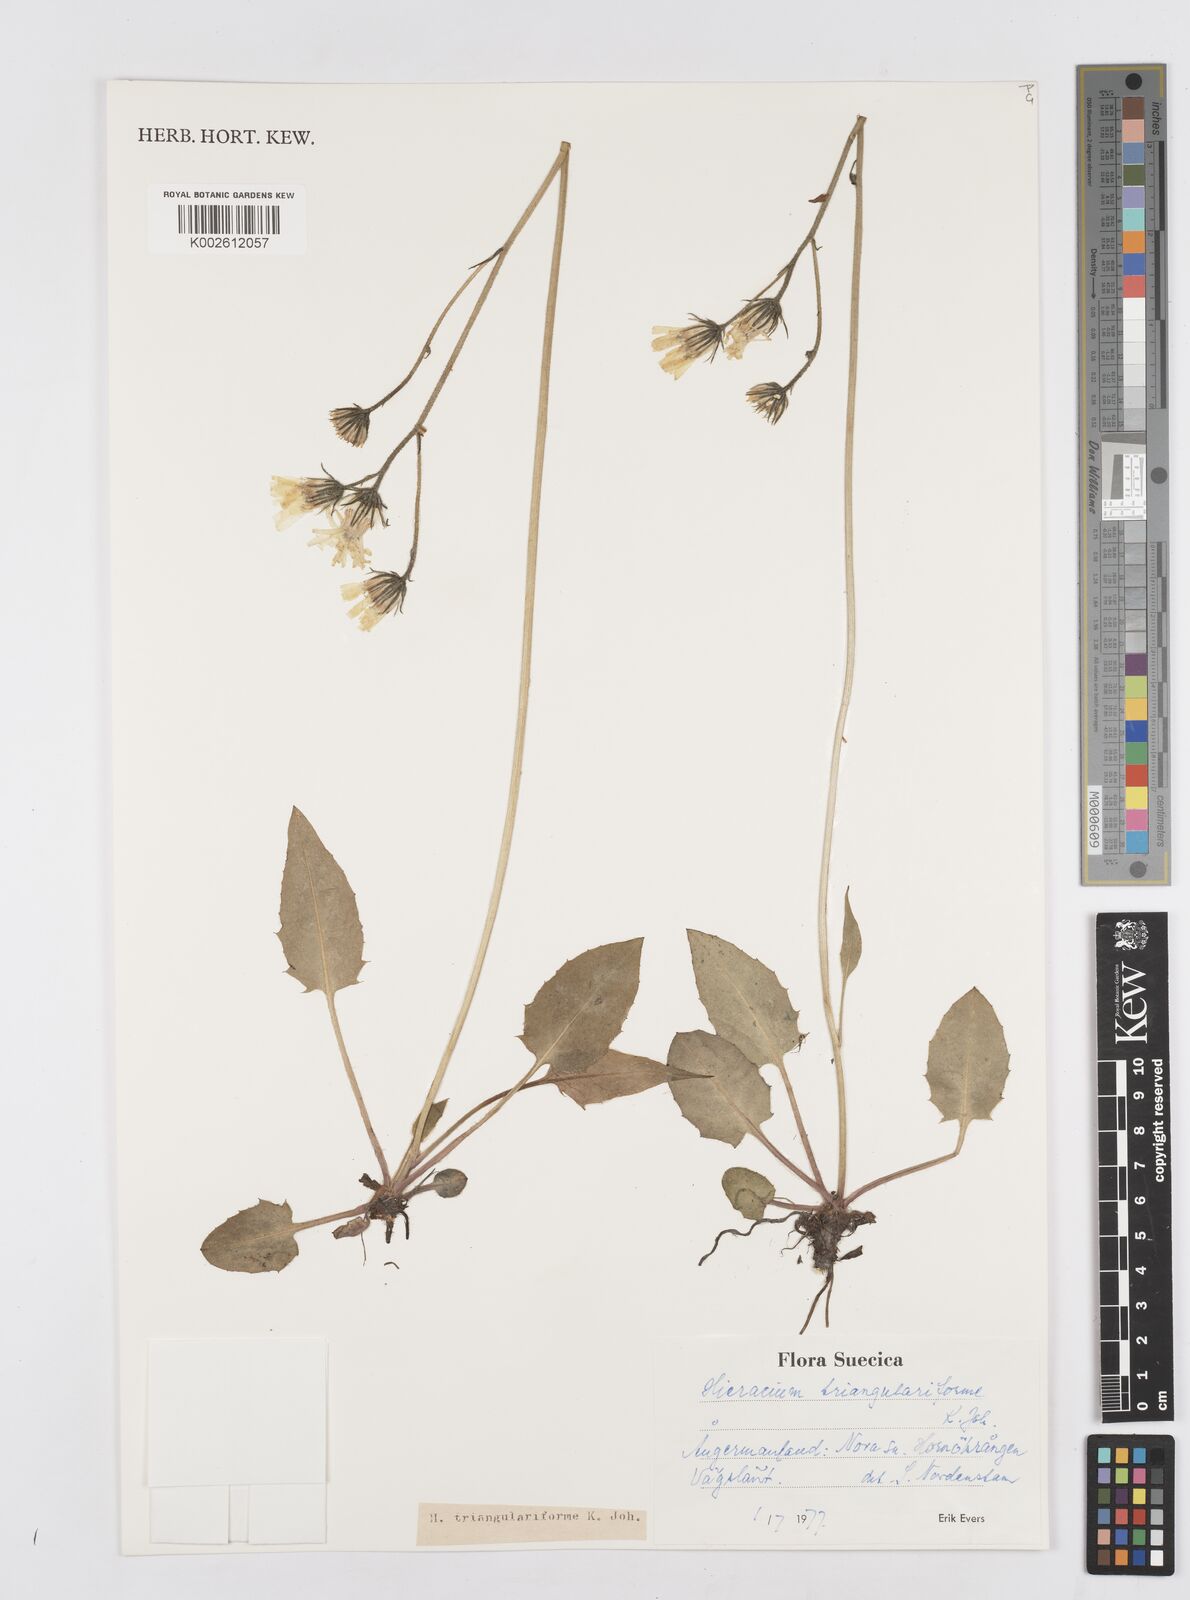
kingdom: Plantae
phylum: Tracheophyta
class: Magnoliopsida
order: Asterales
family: Asteraceae
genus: Hieracium
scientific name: Hieracium triangulariforme
